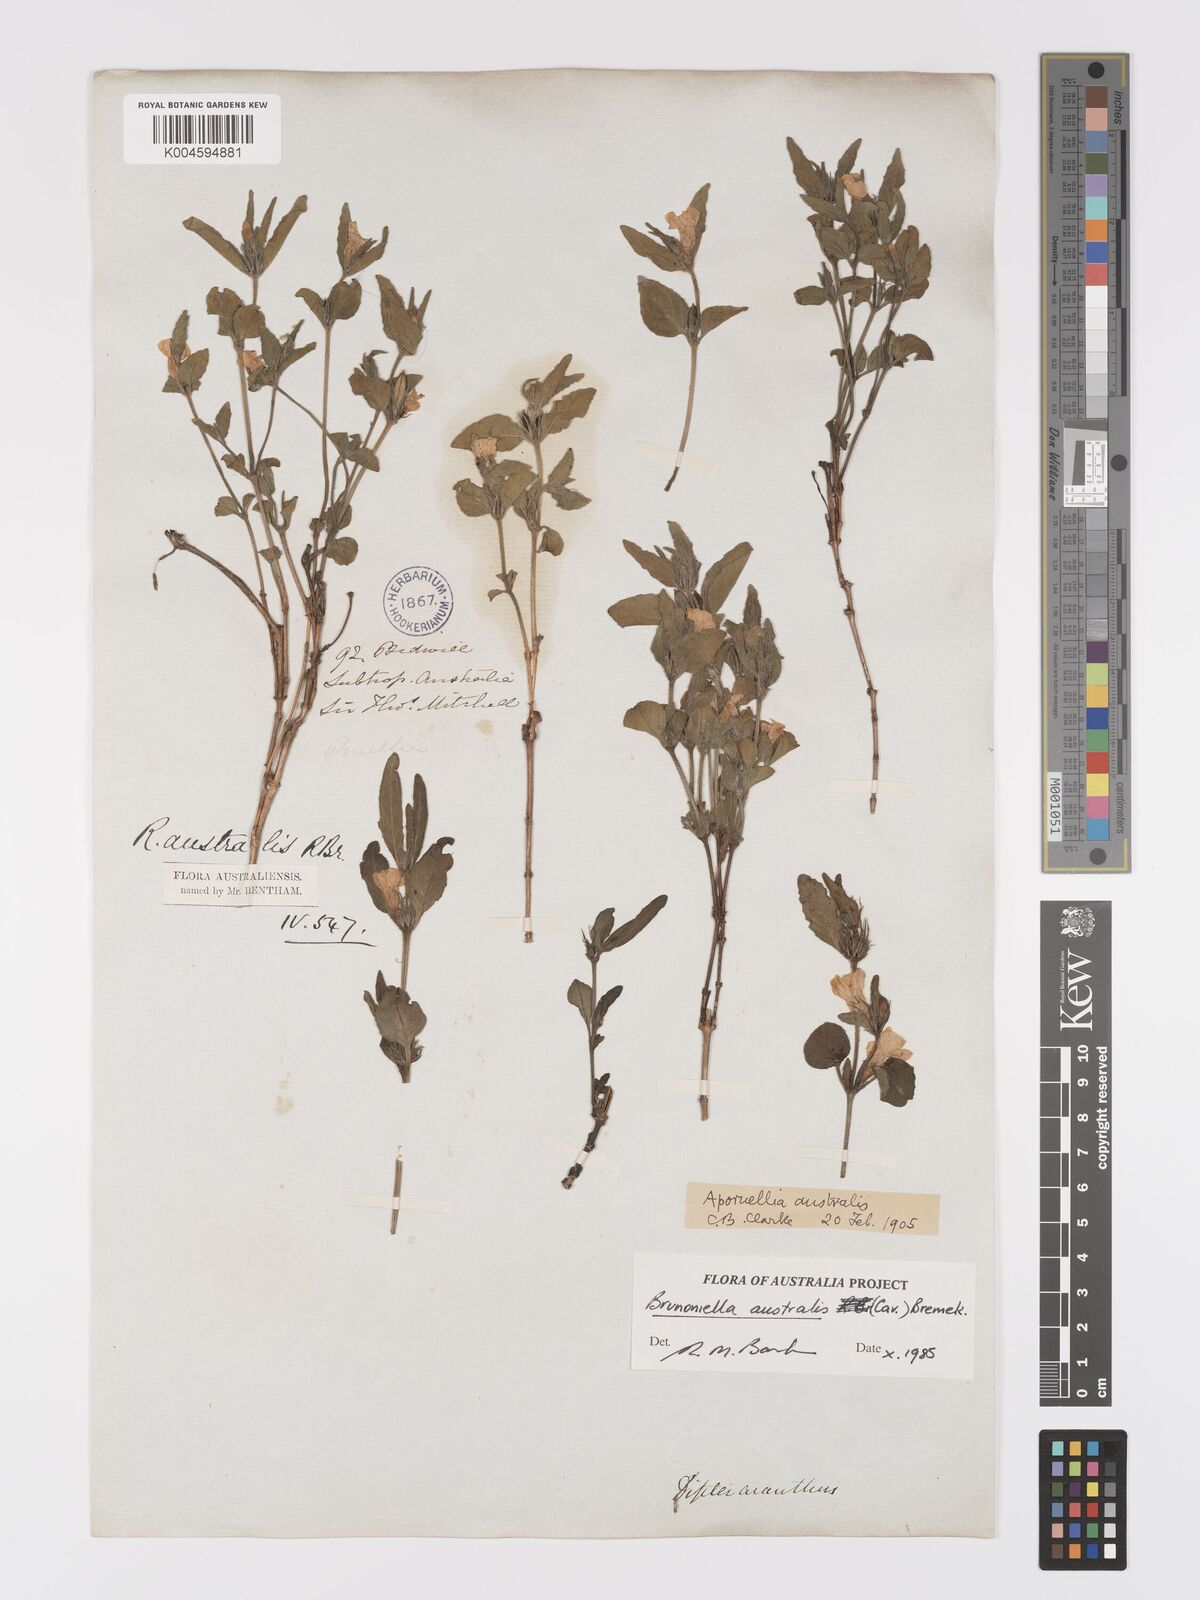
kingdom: Plantae
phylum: Tracheophyta
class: Magnoliopsida
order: Lamiales
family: Acanthaceae
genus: Brunoniella
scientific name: Brunoniella australis
